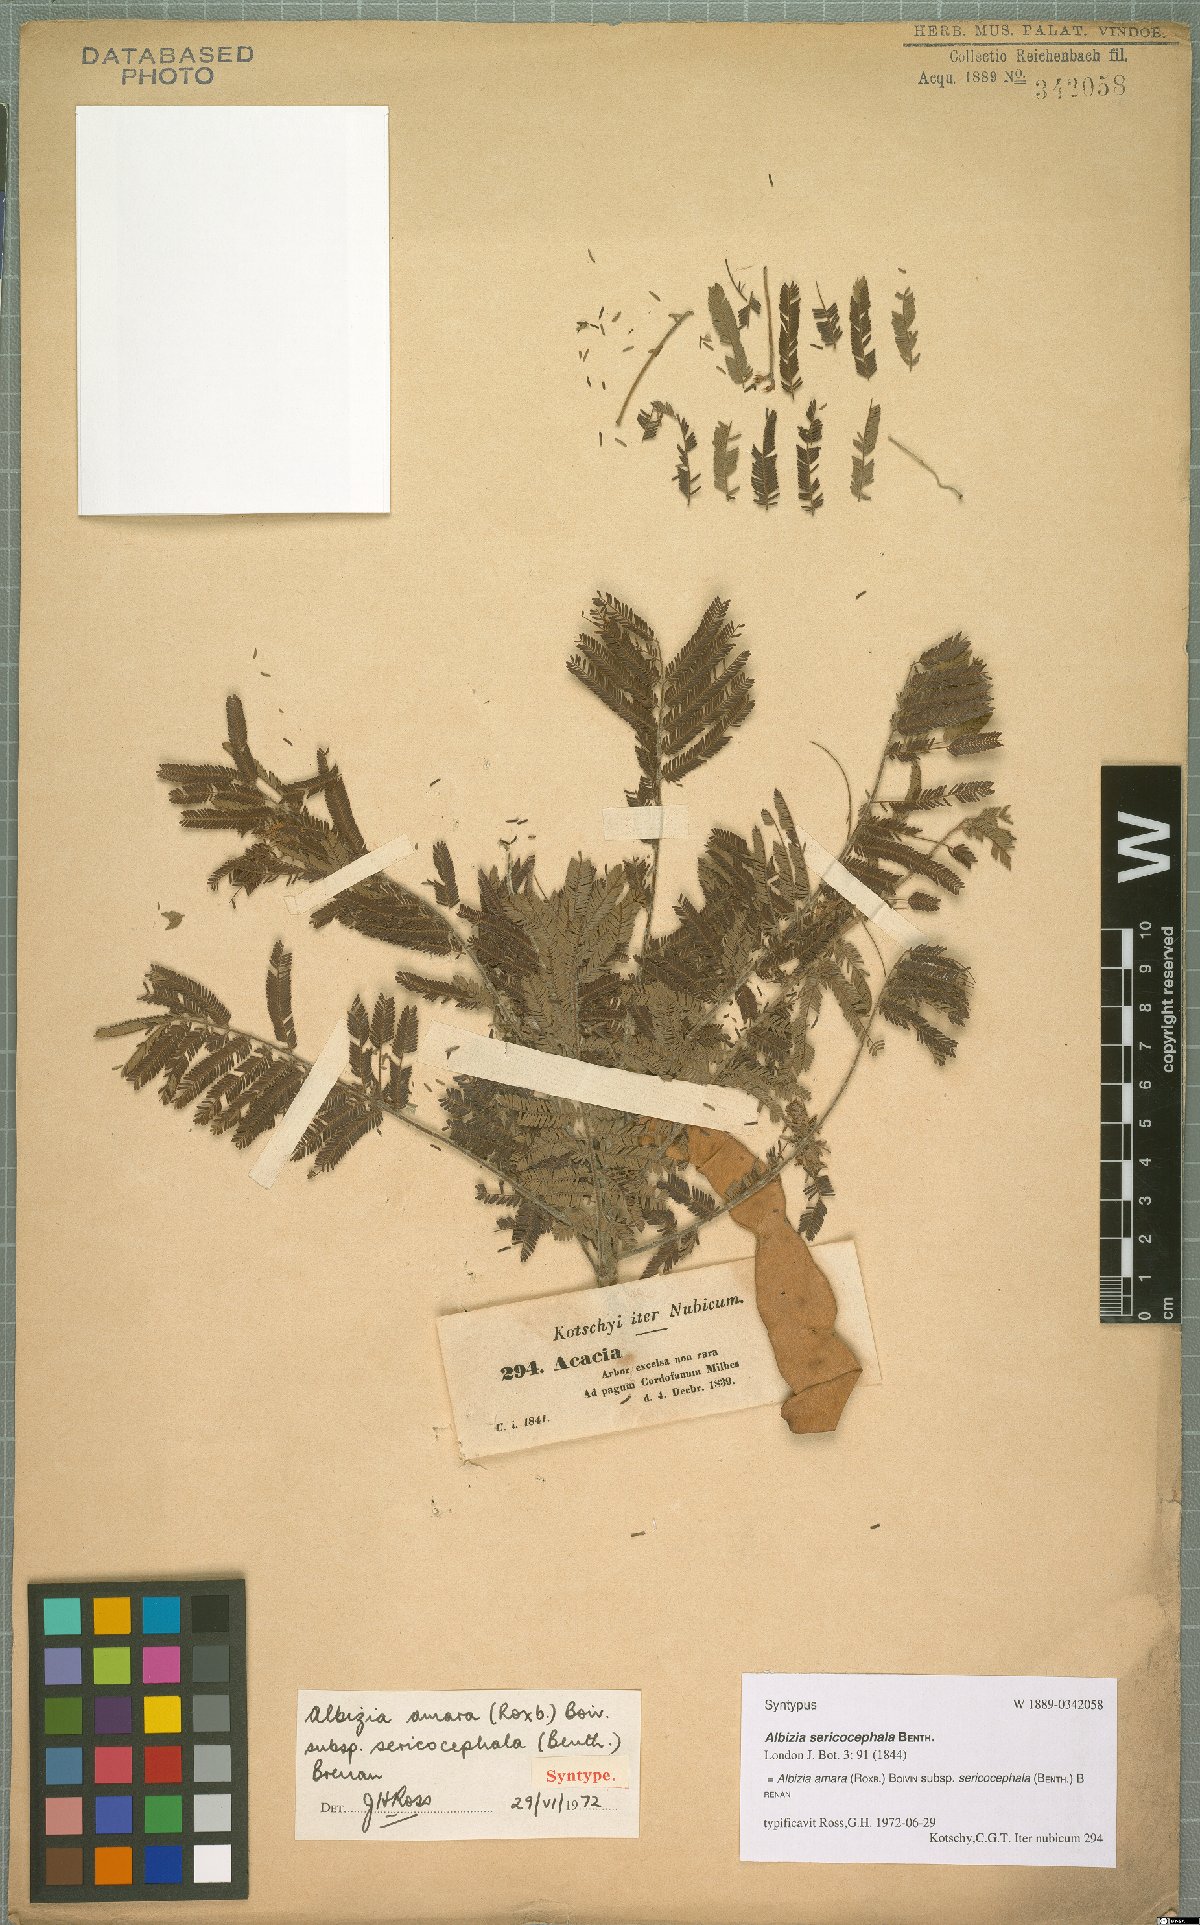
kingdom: Plantae
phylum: Tracheophyta
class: Magnoliopsida
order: Fabales
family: Fabaceae
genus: Albizia
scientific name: Albizia amara
